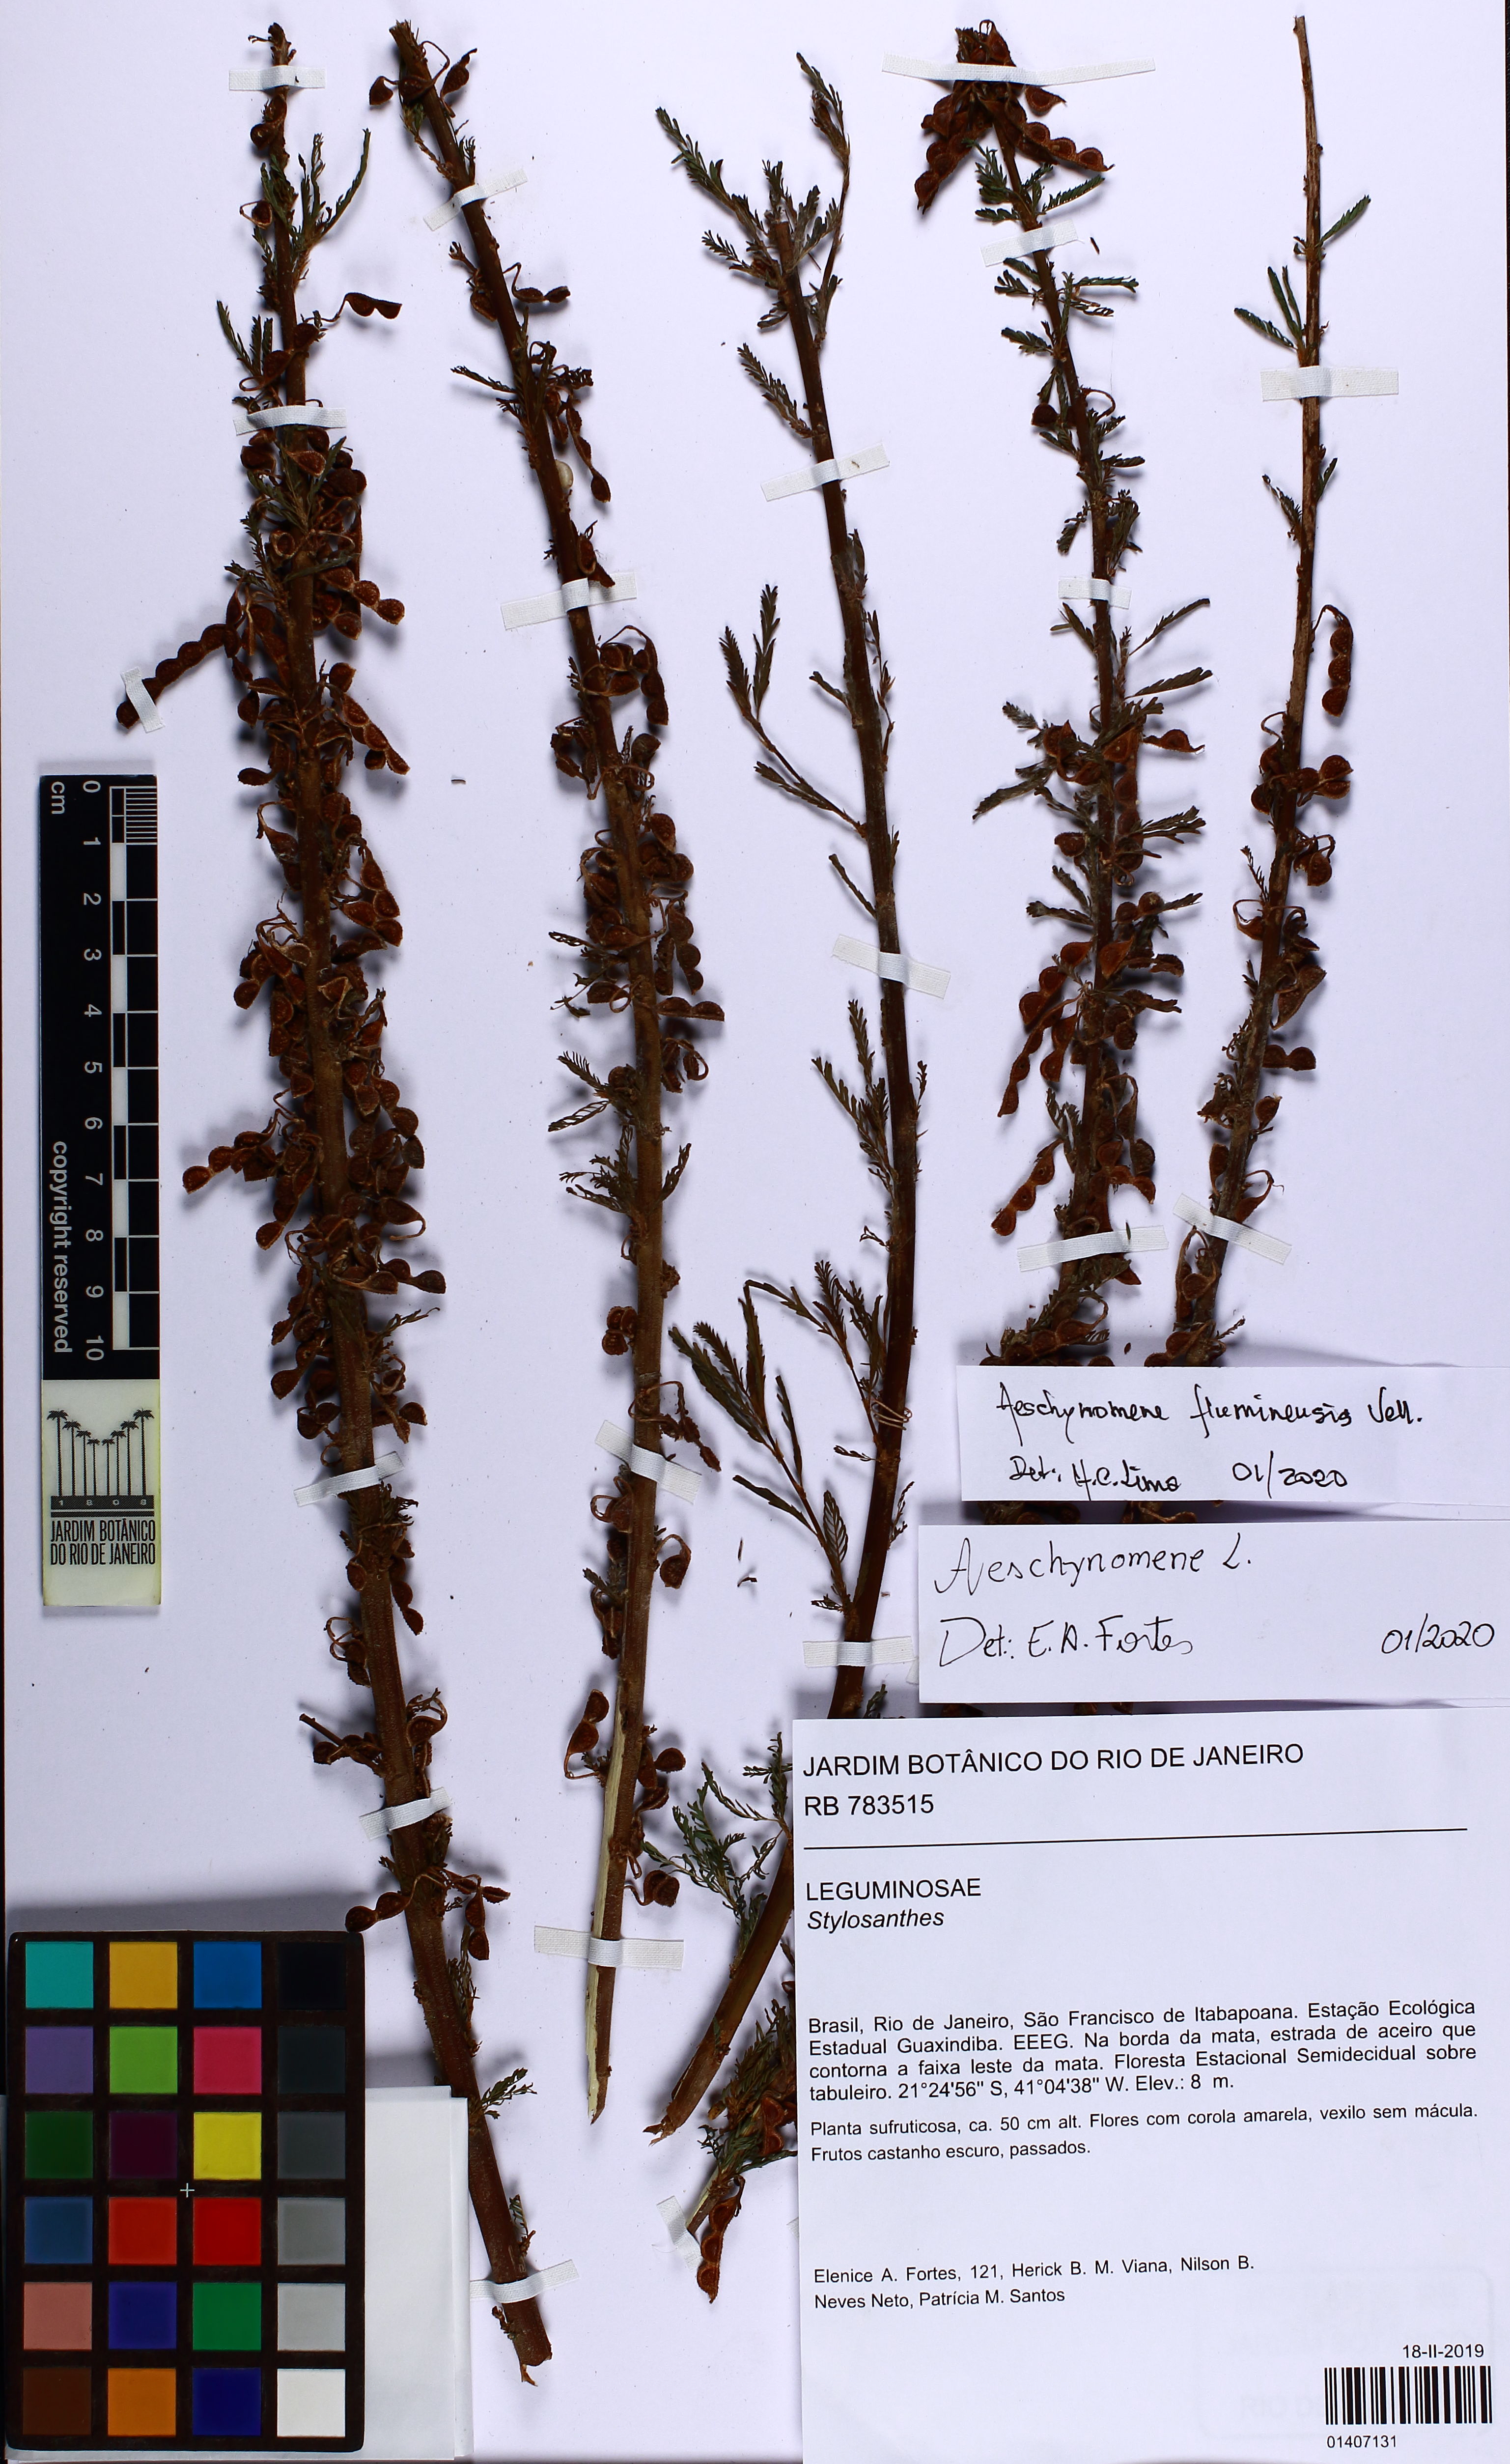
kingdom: Plantae
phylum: Tracheophyta
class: Magnoliopsida
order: Fabales
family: Fabaceae
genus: Aeschynomene
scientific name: Aeschynomene fluminensis
